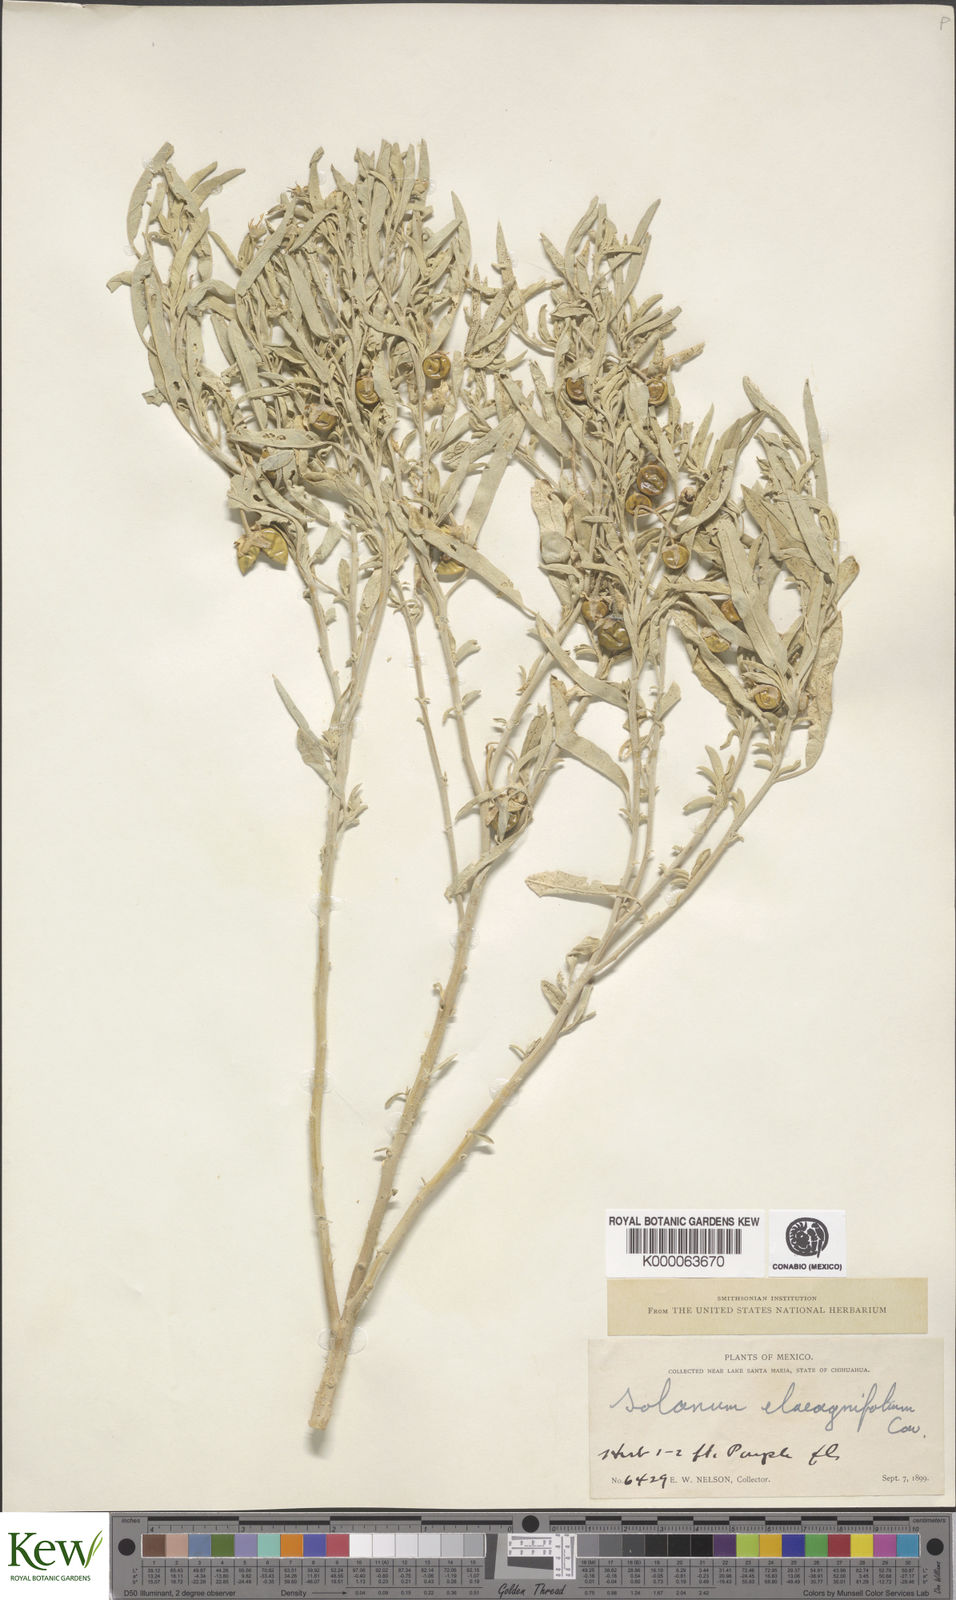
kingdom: Plantae
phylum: Tracheophyta
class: Magnoliopsida
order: Solanales
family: Solanaceae
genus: Solanum
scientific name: Solanum elaeagnifolium
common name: Silverleaf nightshade
